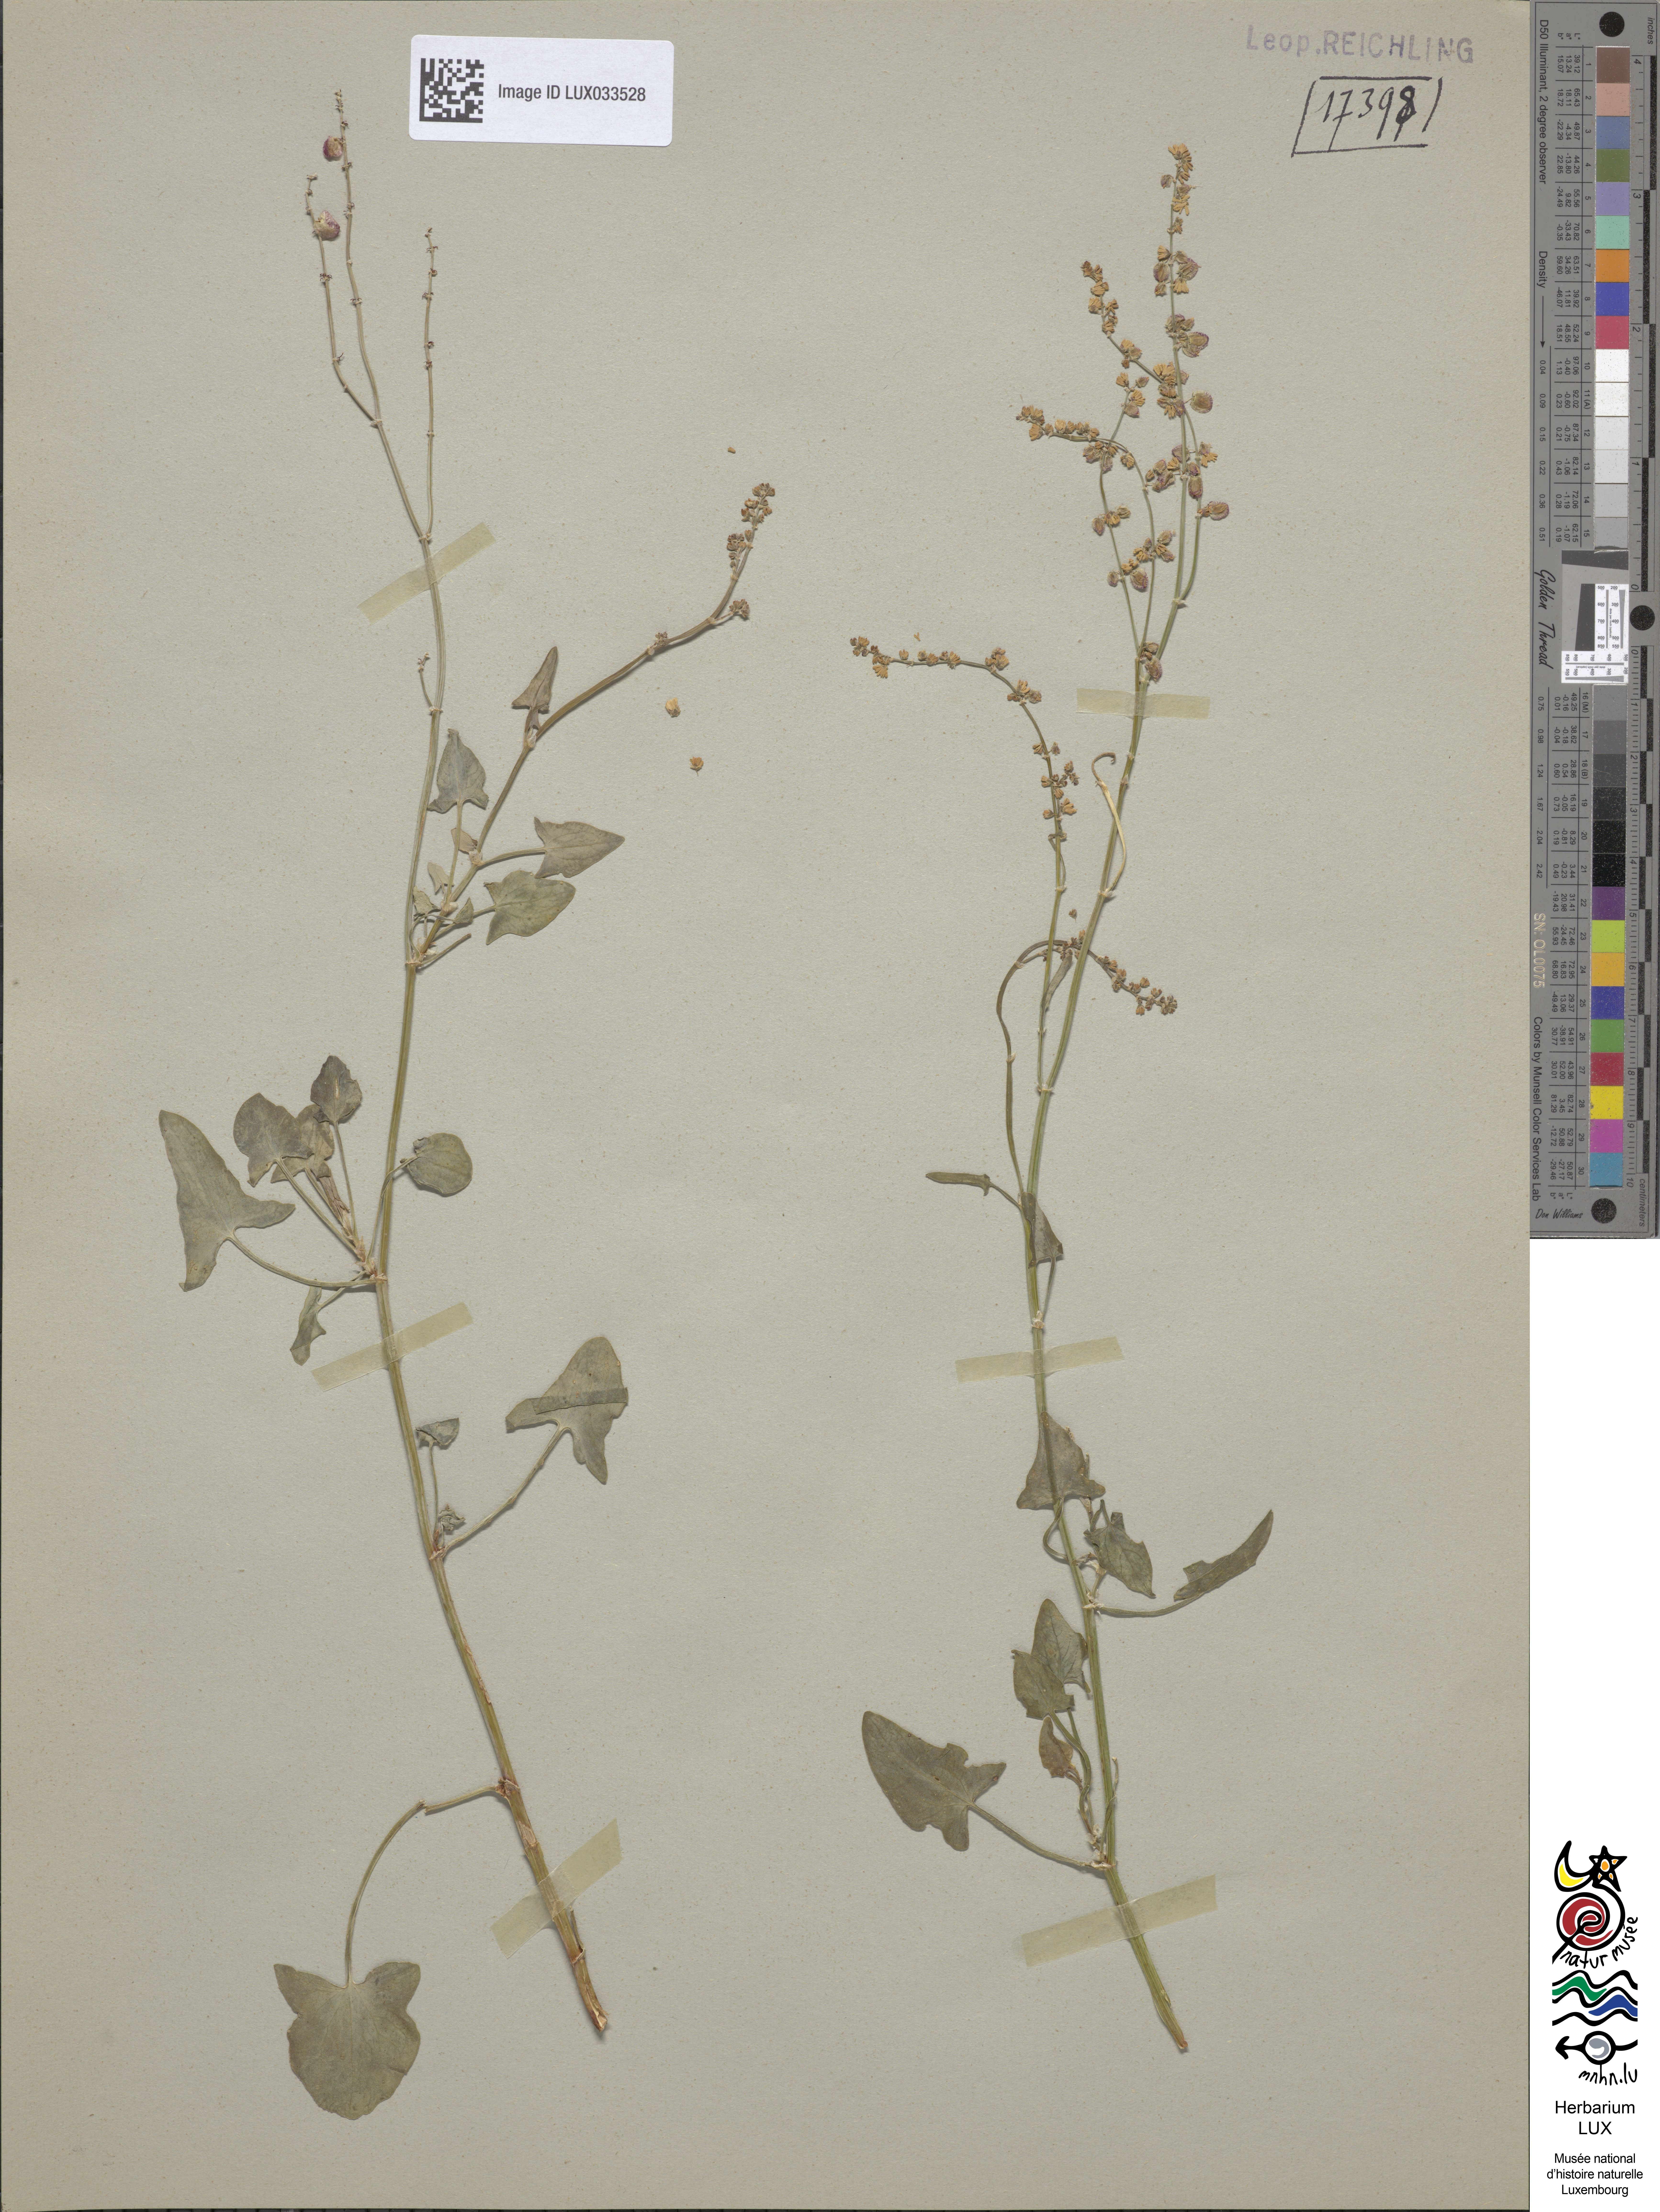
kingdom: Plantae
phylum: Tracheophyta
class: Magnoliopsida
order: Caryophyllales
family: Polygonaceae
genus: Rumex
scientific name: Rumex scutatus
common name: French sorrel
